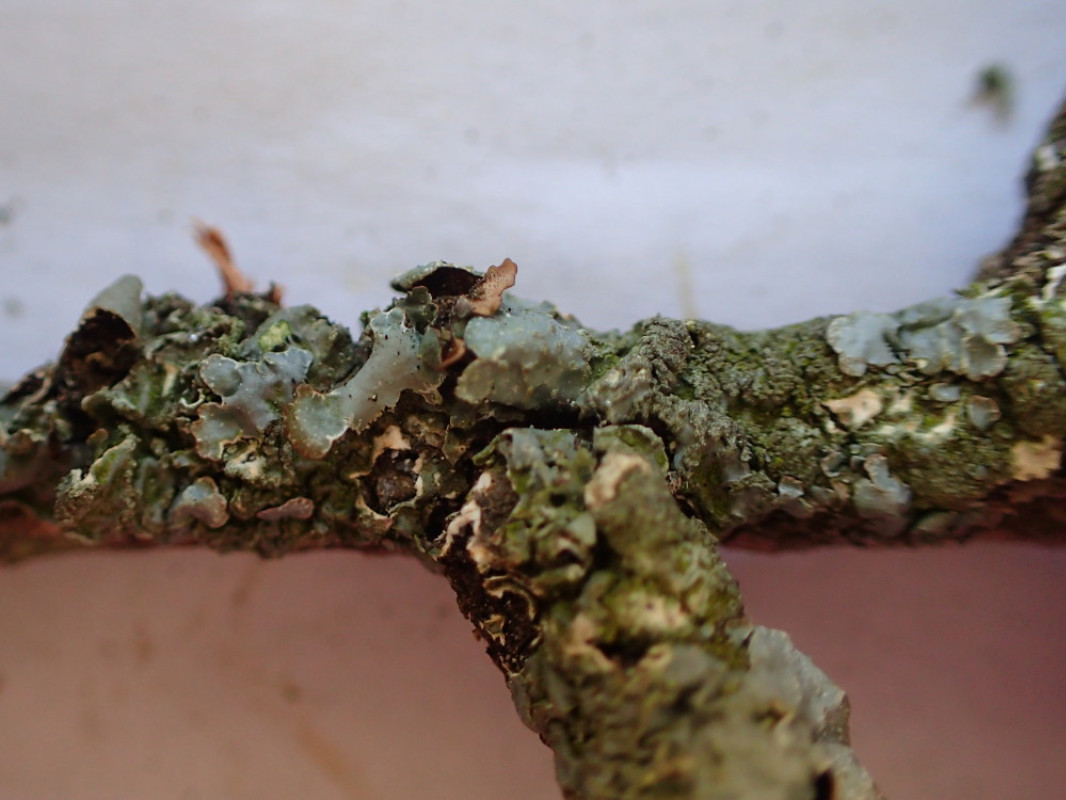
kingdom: Fungi
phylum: Ascomycota
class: Lecanoromycetes
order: Lecanorales
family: Parmeliaceae
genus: Parmelia
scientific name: Parmelia sulcata
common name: rynket skållav
